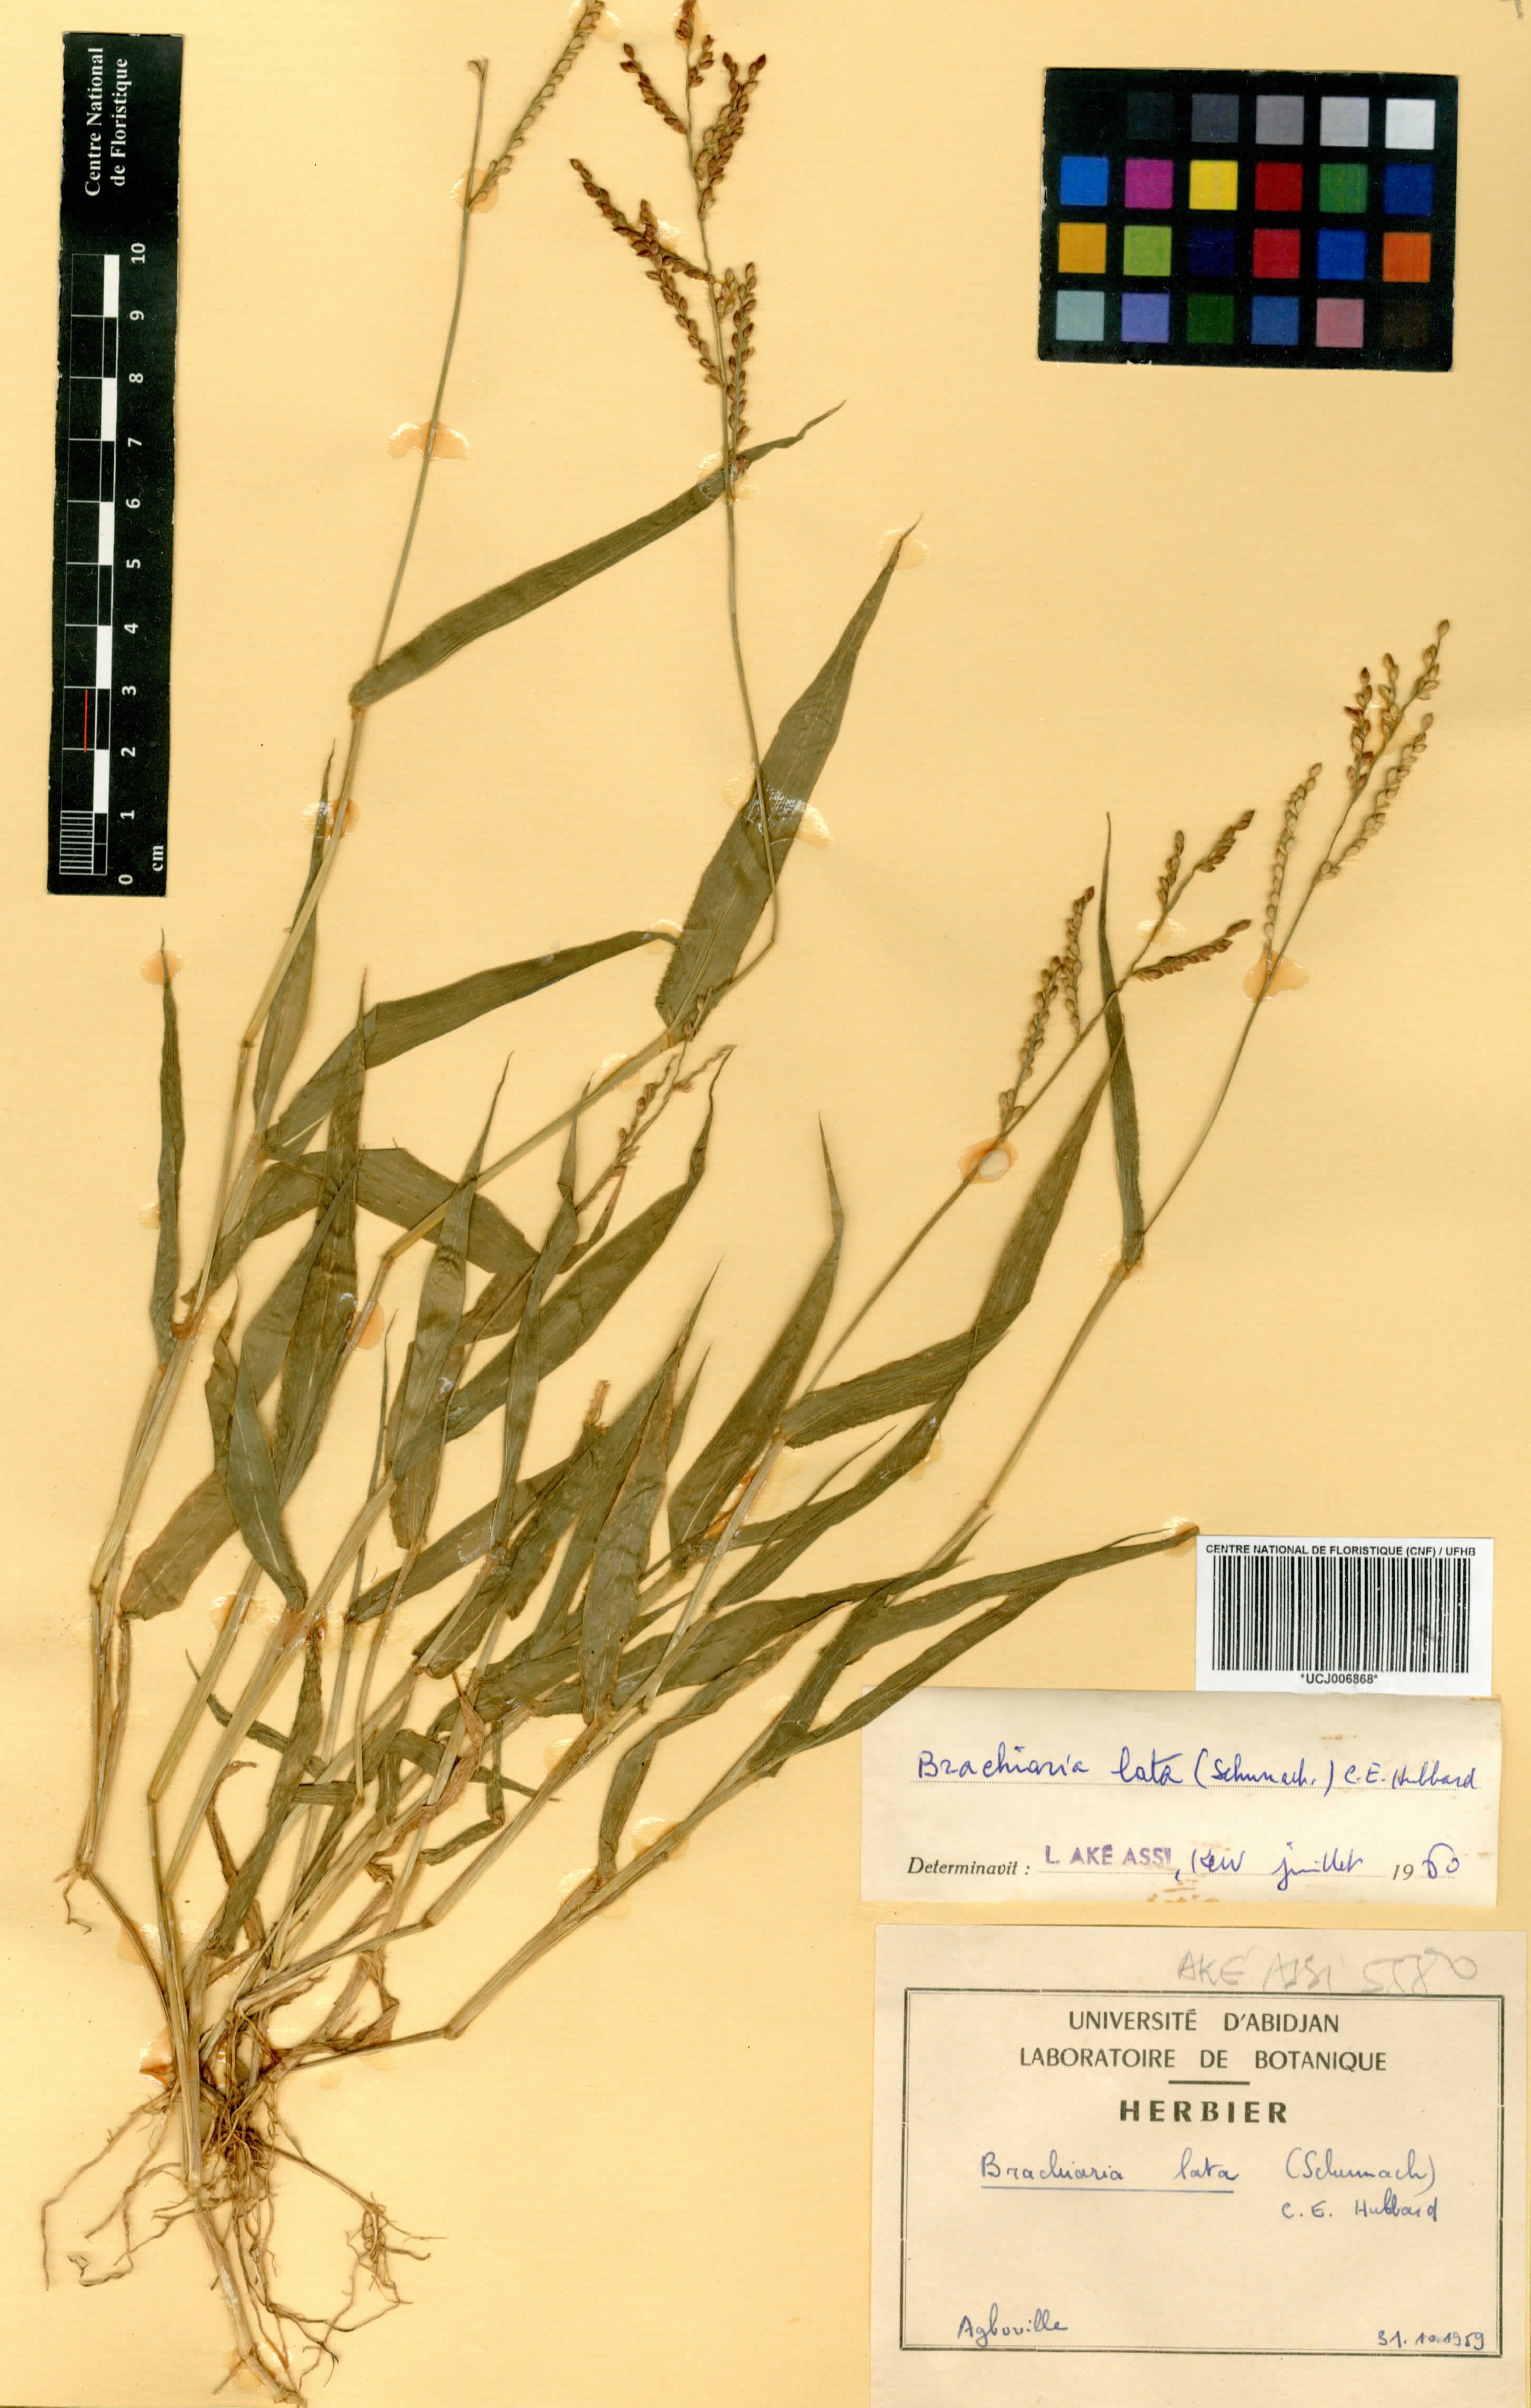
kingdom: Plantae
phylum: Tracheophyta
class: Liliopsida
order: Poales
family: Poaceae
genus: Urochloa
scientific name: Urochloa lata
